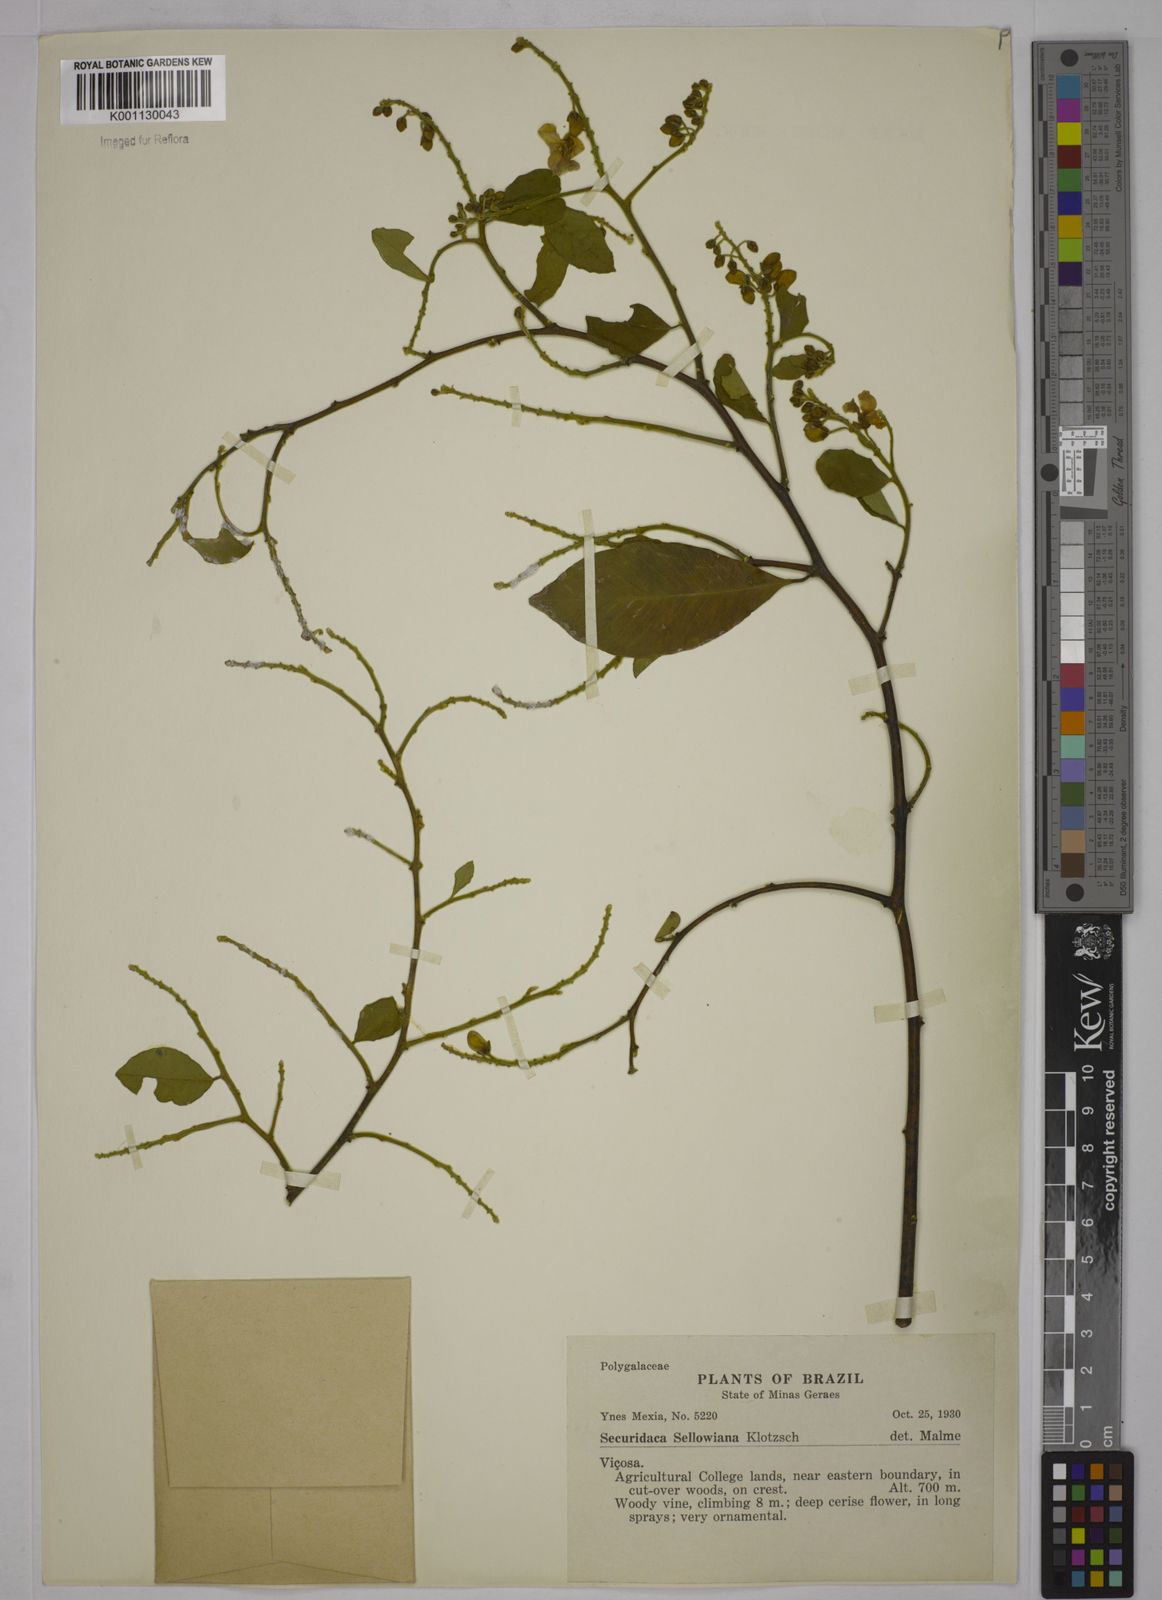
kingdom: Plantae
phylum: Tracheophyta
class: Magnoliopsida
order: Fabales
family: Polygalaceae
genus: Securidaca
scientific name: Securidaca
